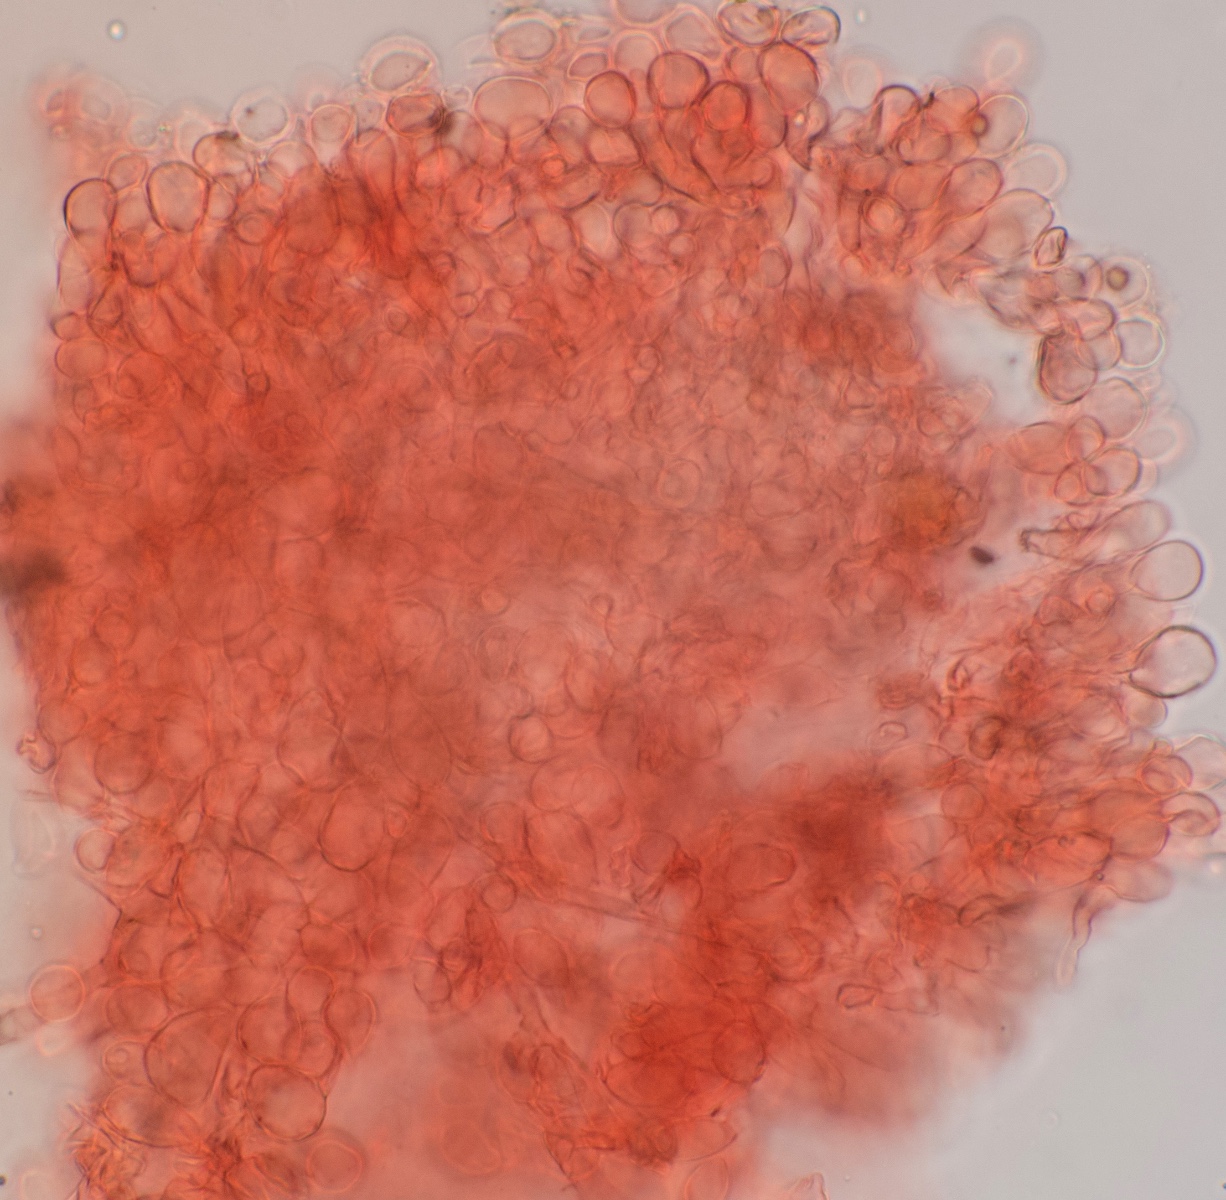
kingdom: Fungi
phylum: Basidiomycota
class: Agaricomycetes
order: Agaricales
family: Bolbitiaceae
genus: Conocybe
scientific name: Conocybe brachypodii
